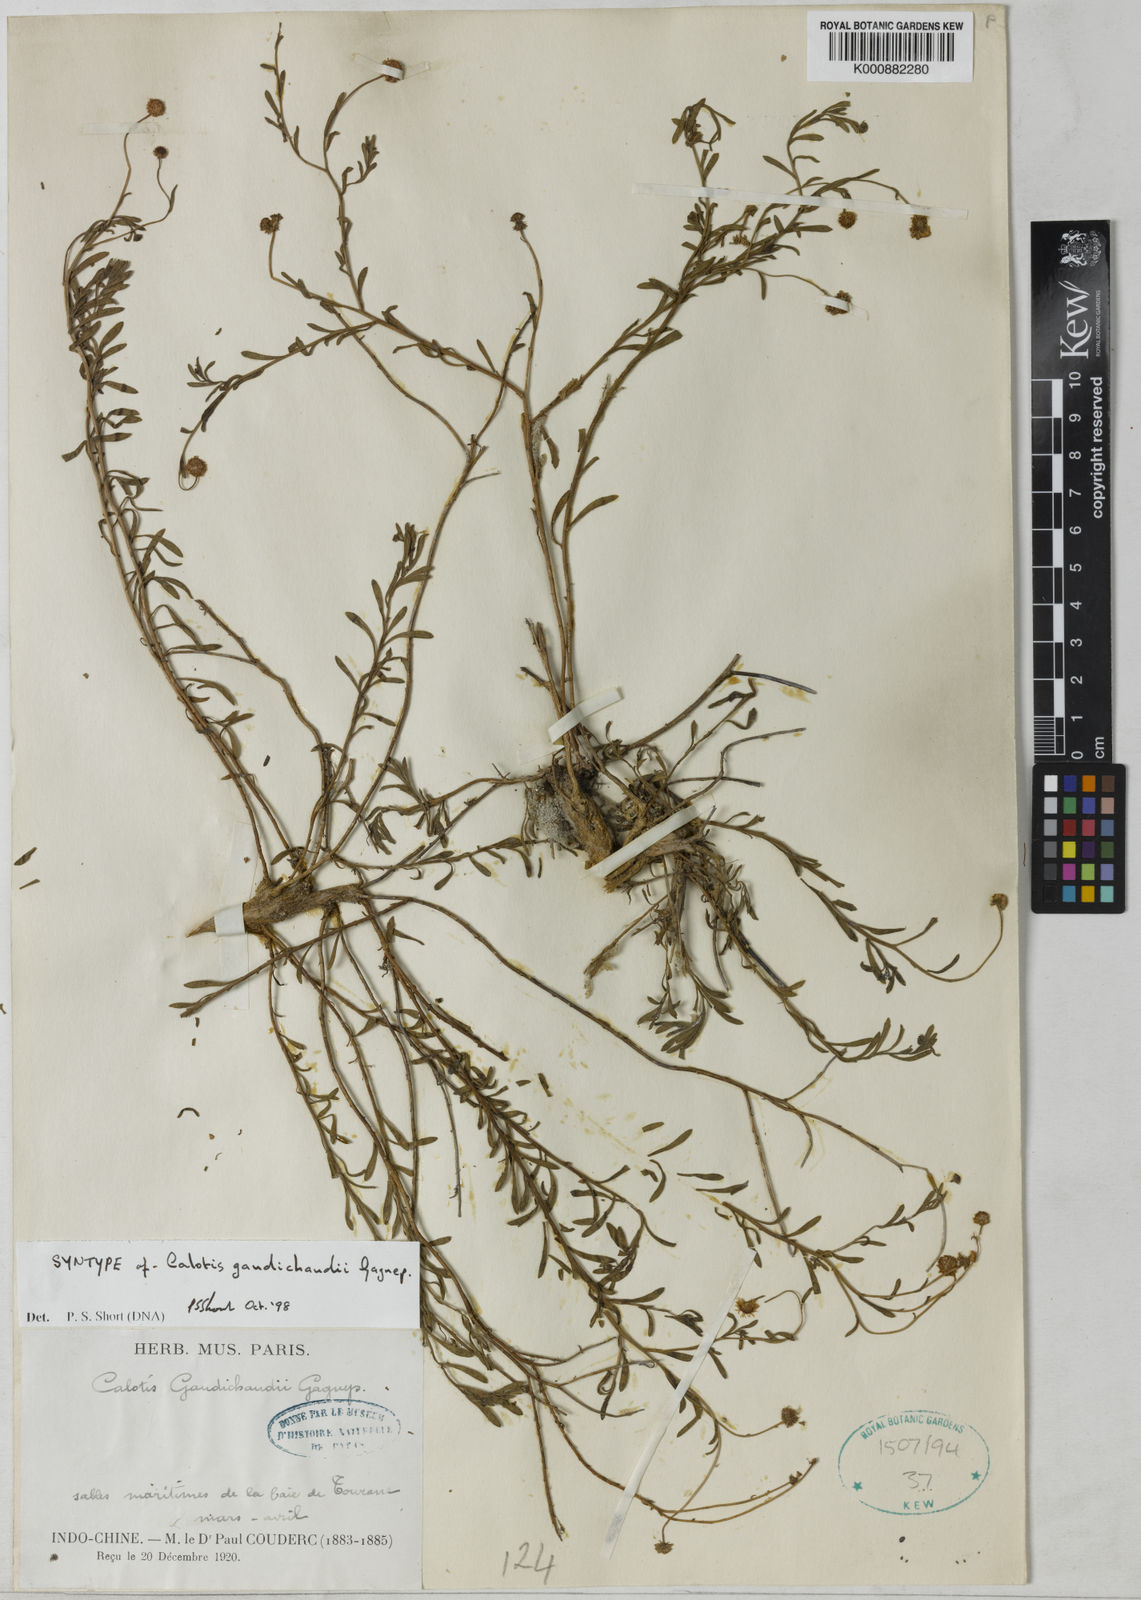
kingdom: Plantae
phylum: Tracheophyta
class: Magnoliopsida
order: Asterales
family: Asteraceae
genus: Calotis
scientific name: Calotis anamitica
